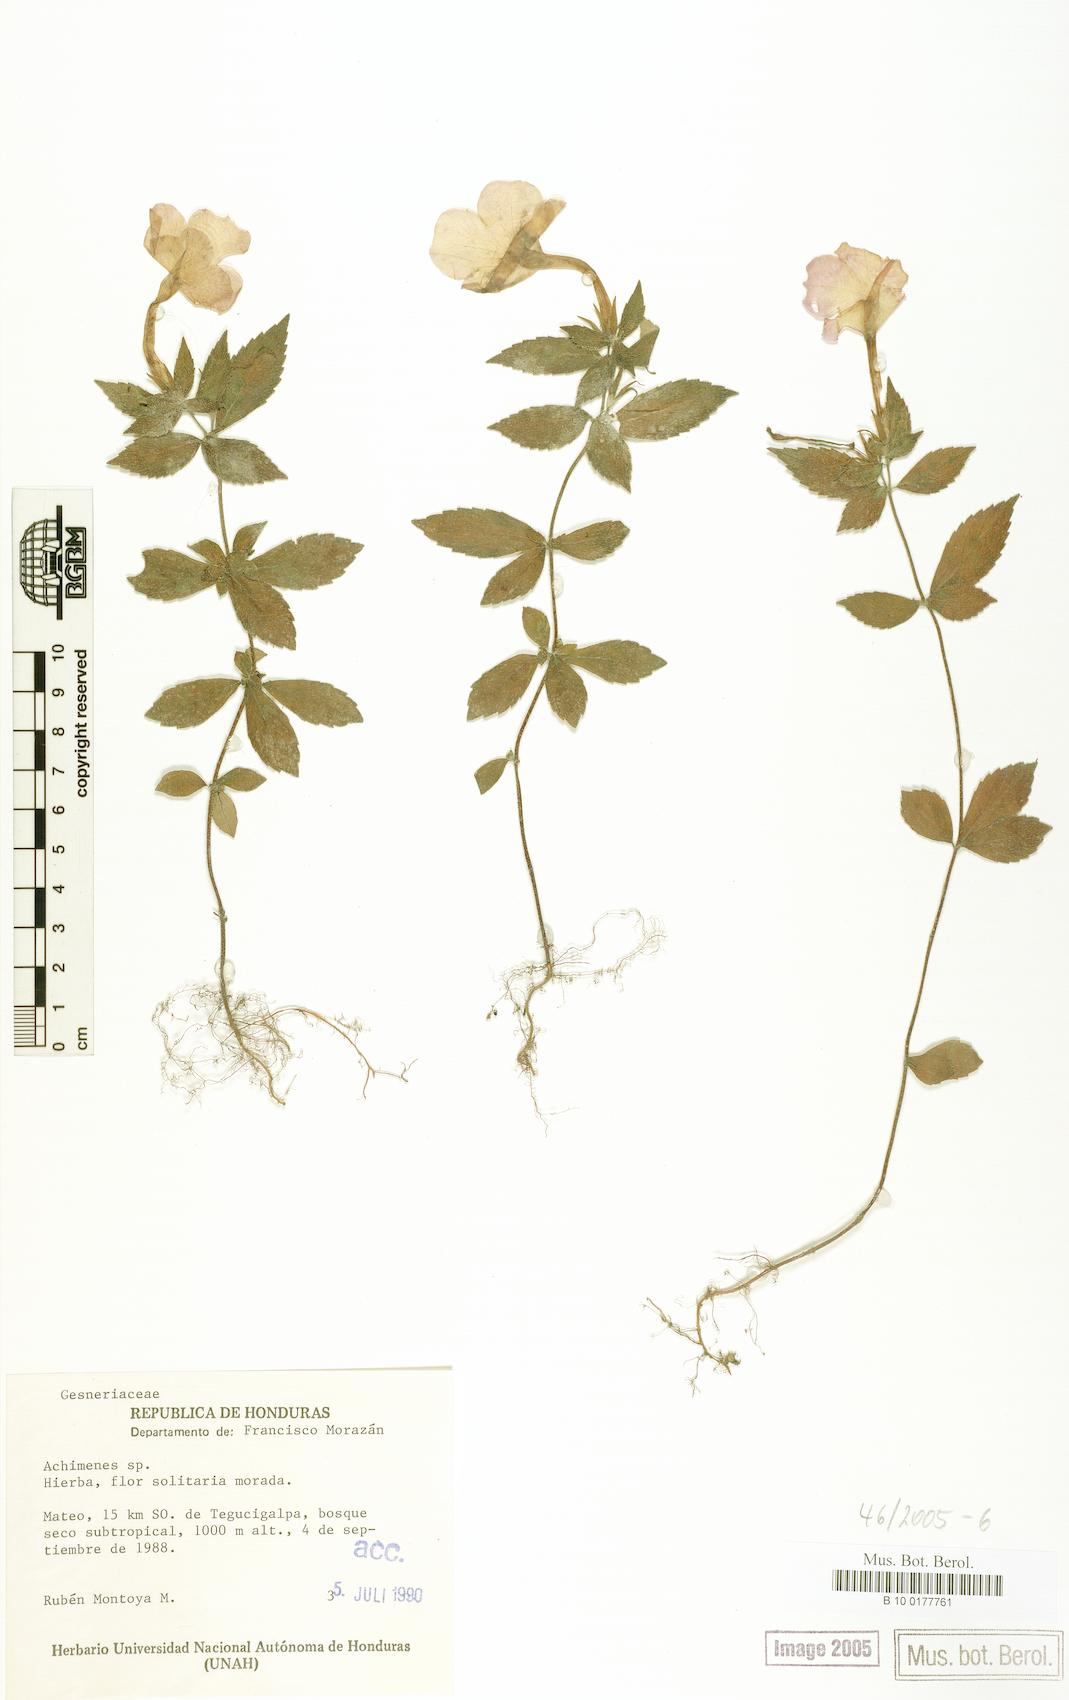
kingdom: Plantae
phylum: Tracheophyta
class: Magnoliopsida
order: Lamiales
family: Gesneriaceae
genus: Achimenes
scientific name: Achimenes
